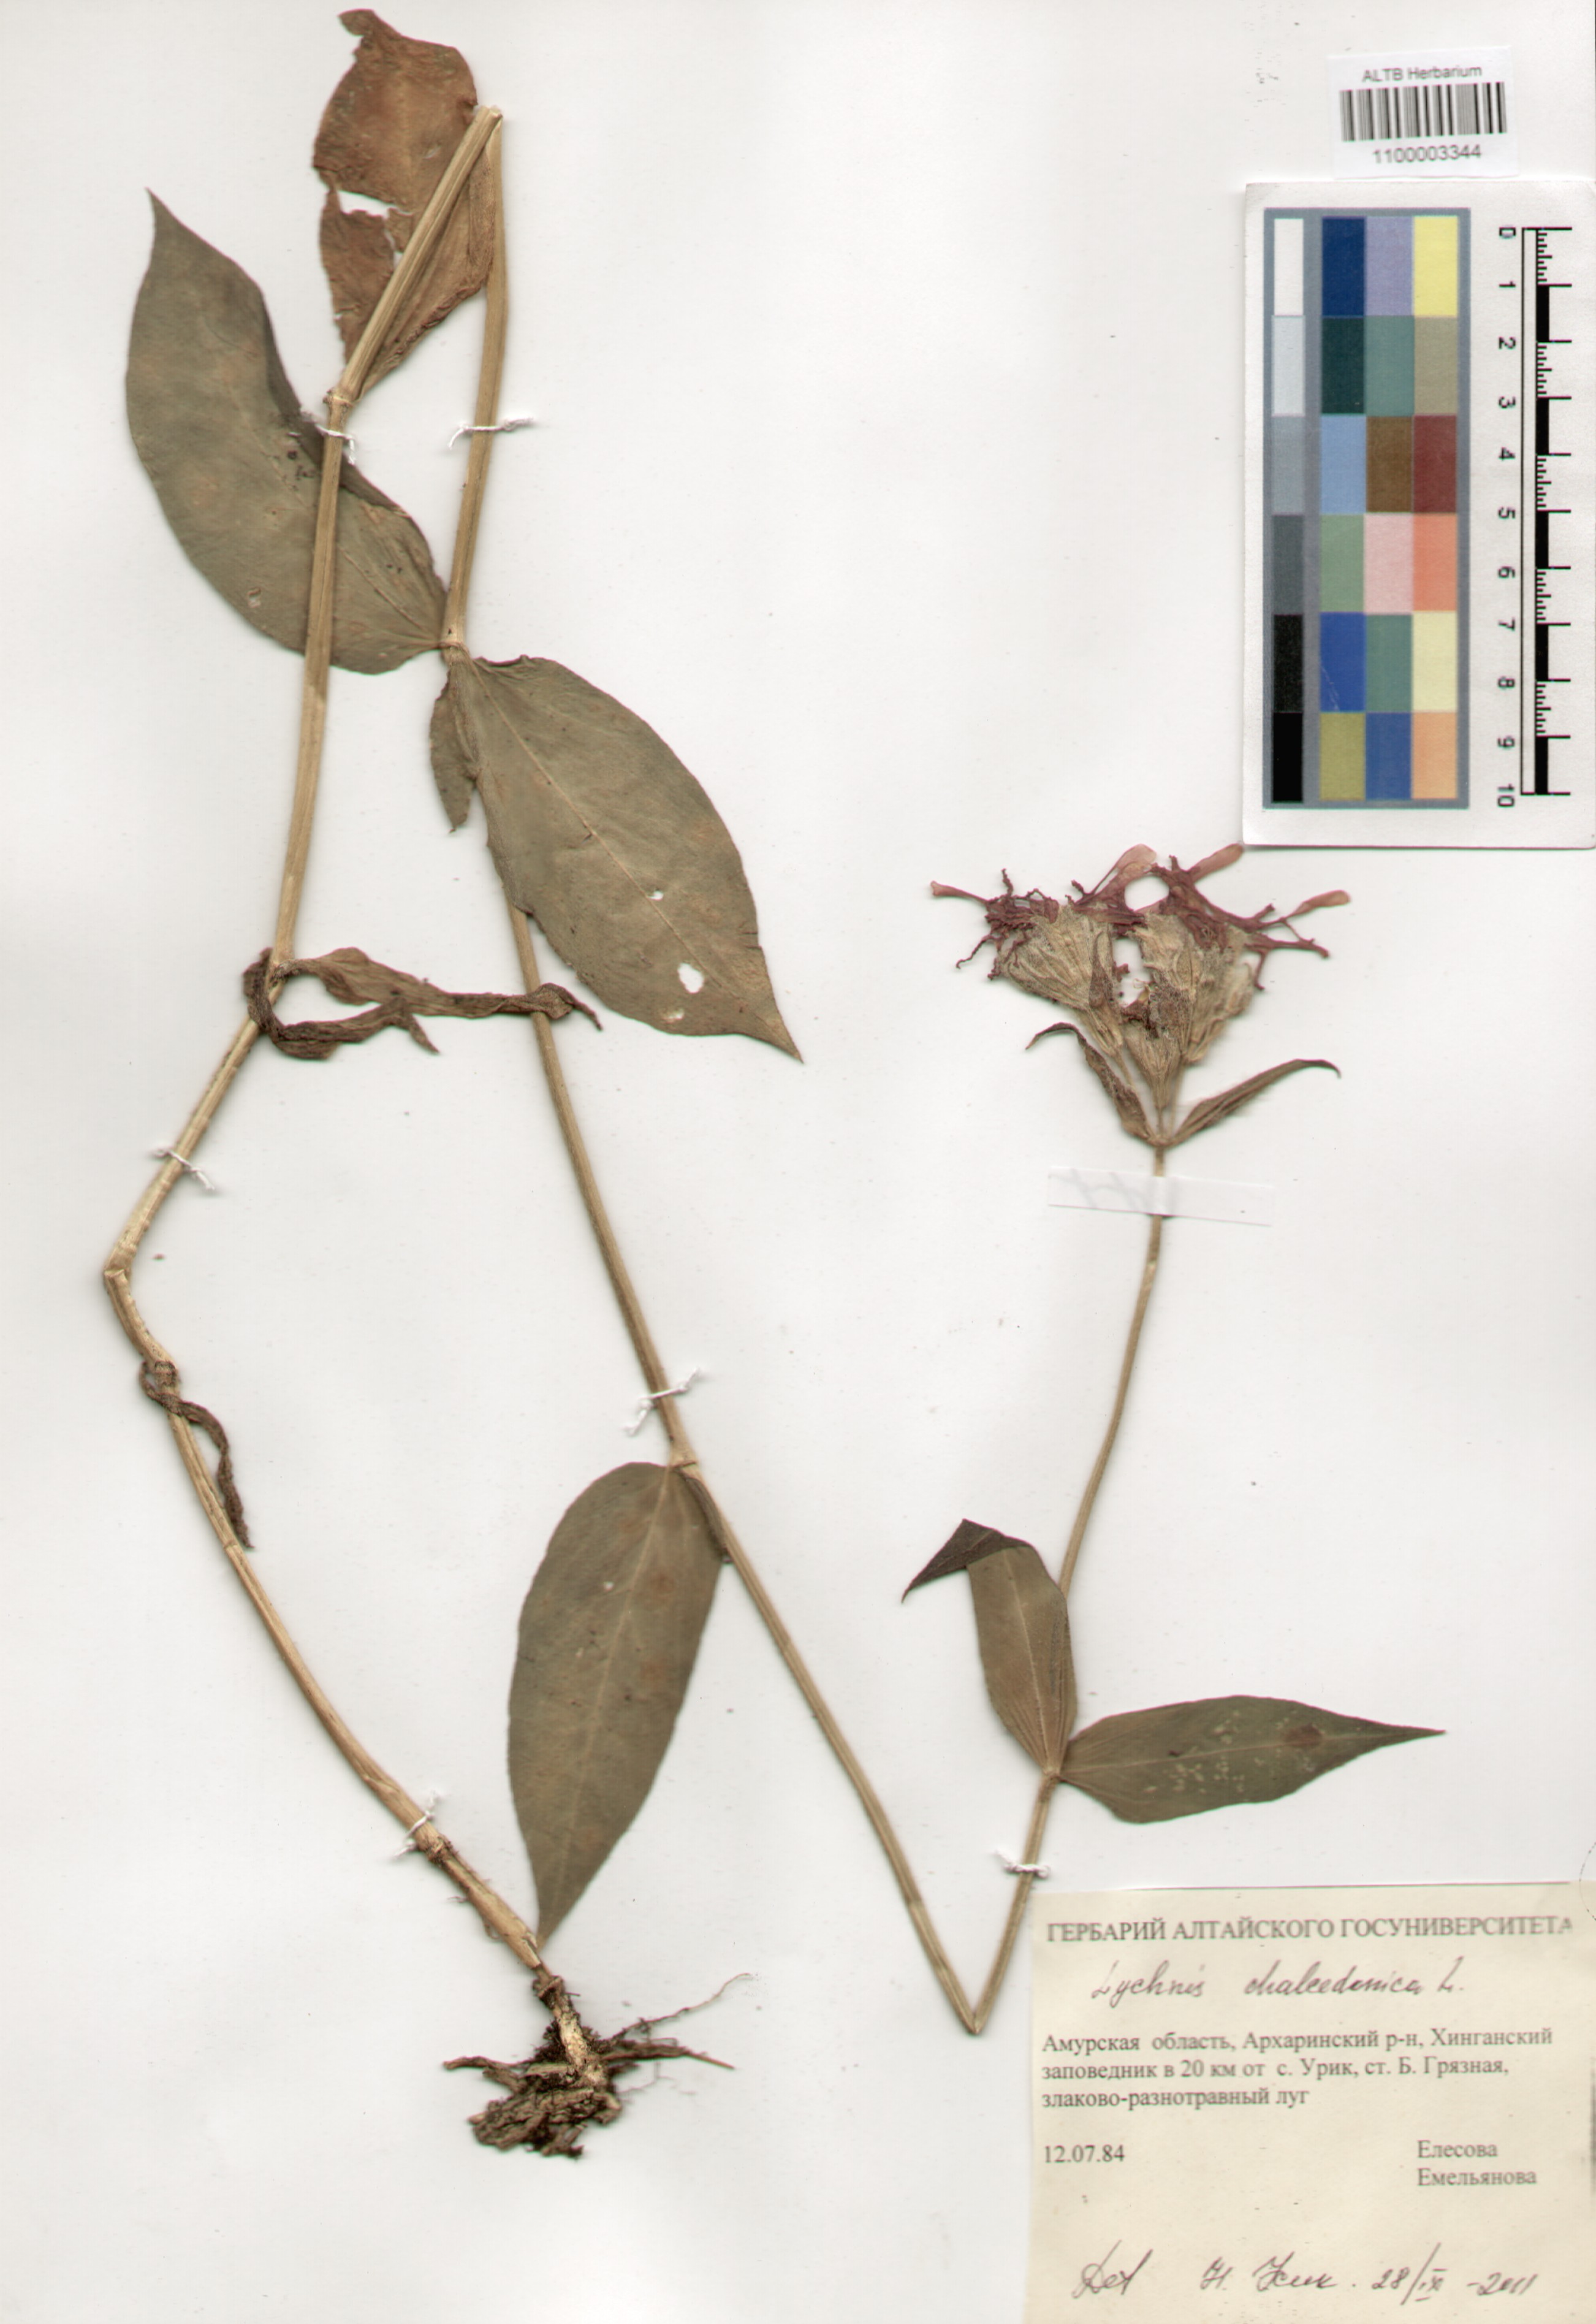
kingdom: Plantae
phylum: Tracheophyta
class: Magnoliopsida
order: Caryophyllales
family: Caryophyllaceae
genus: Silene
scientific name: Silene chalcedonica
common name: Maltese-cross
